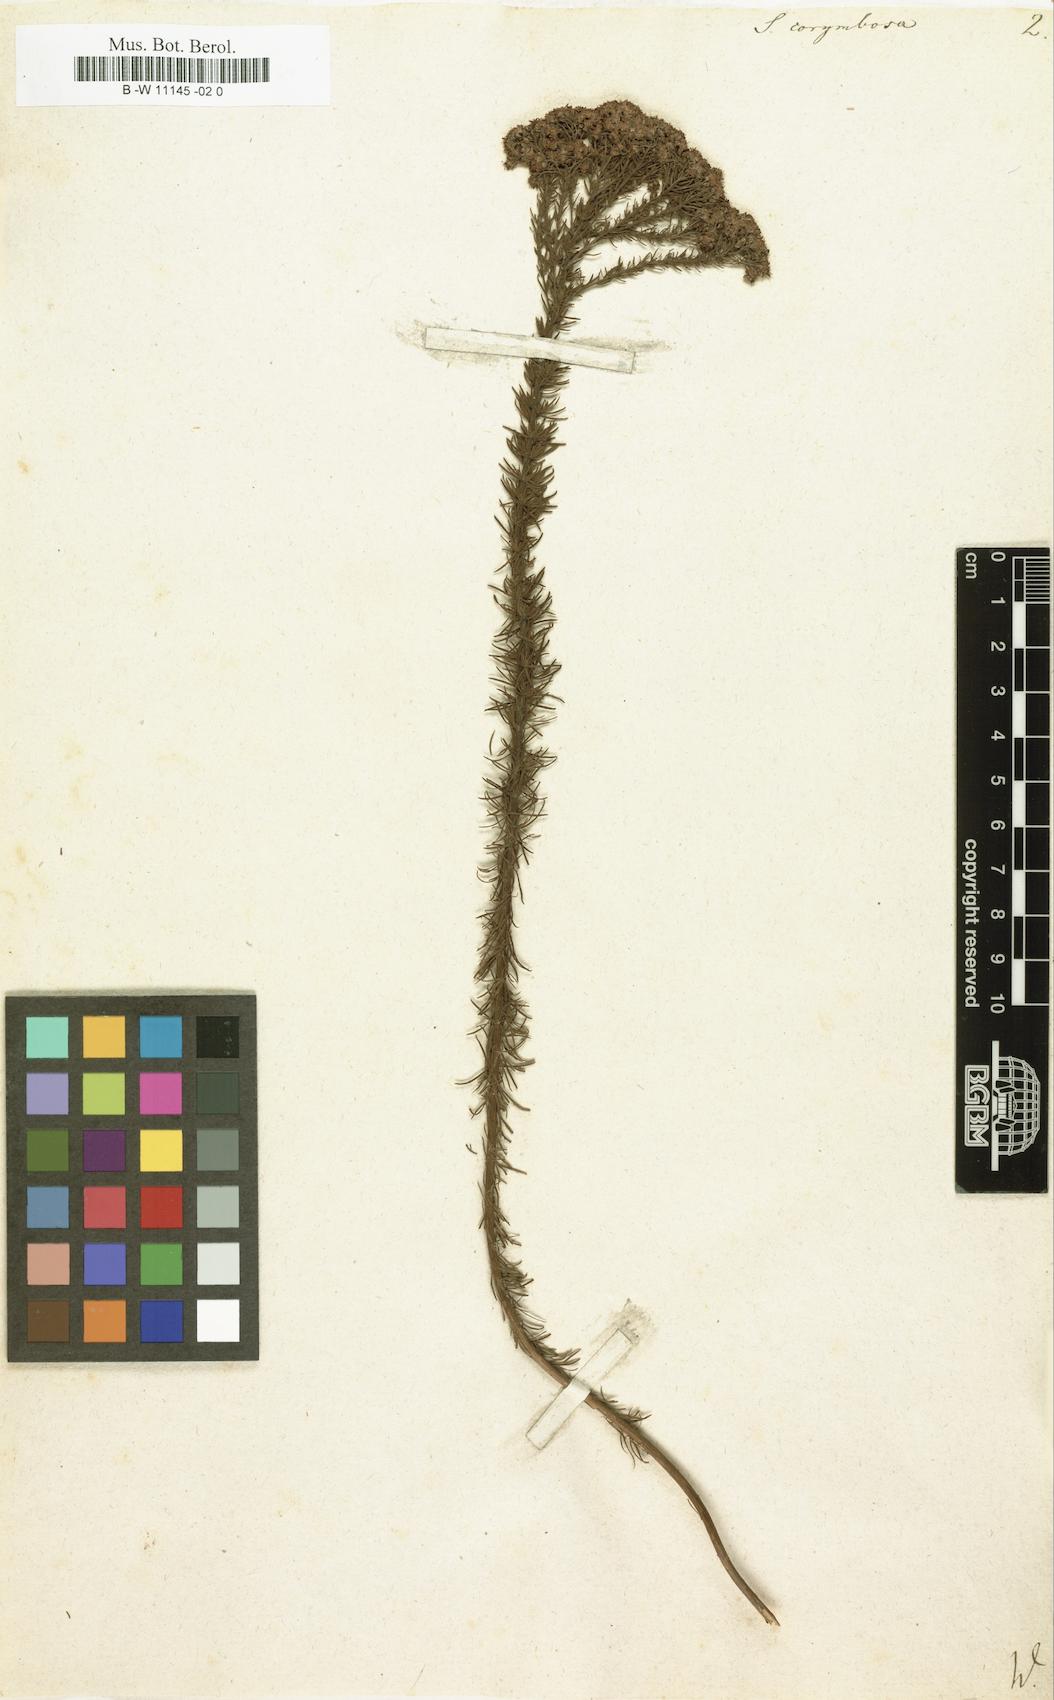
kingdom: Plantae
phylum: Tracheophyta
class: Magnoliopsida
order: Lamiales
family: Scrophulariaceae
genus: Selago
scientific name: Selago corymbosa
